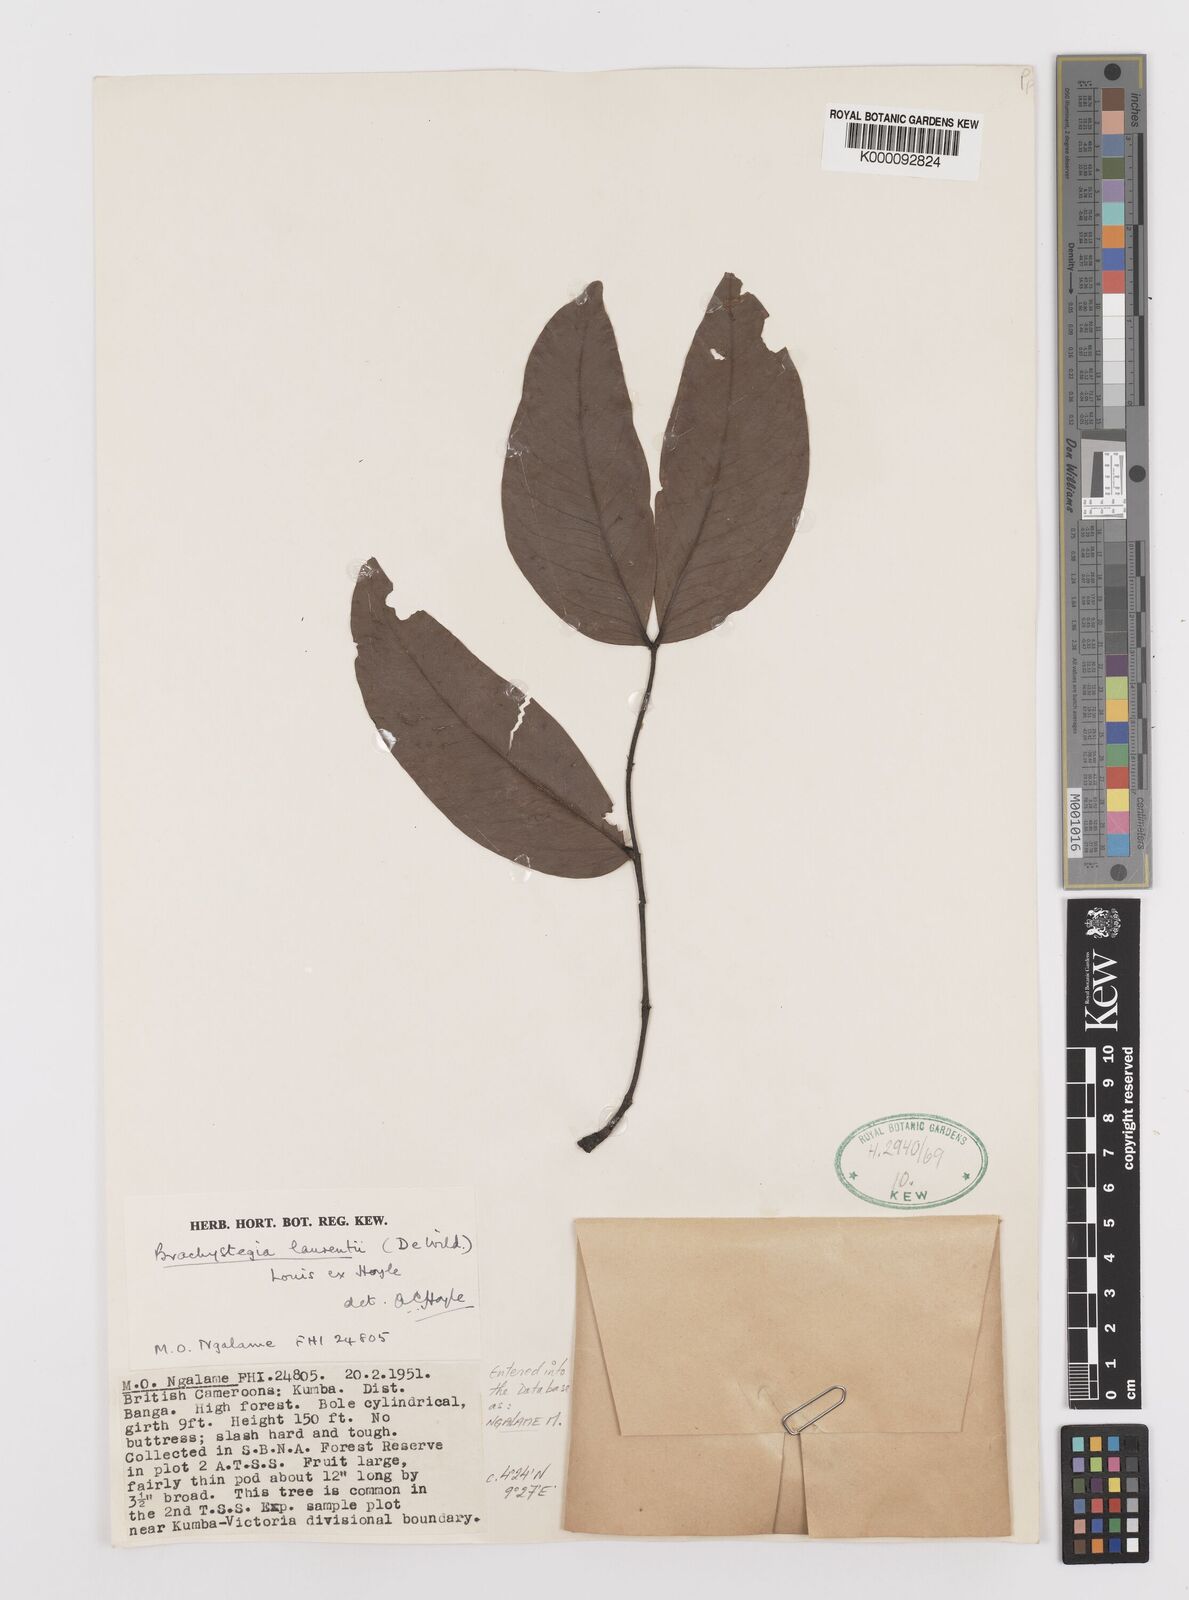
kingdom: Plantae
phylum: Tracheophyta
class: Magnoliopsida
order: Fabales
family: Fabaceae
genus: Brachystegia
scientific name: Brachystegia
